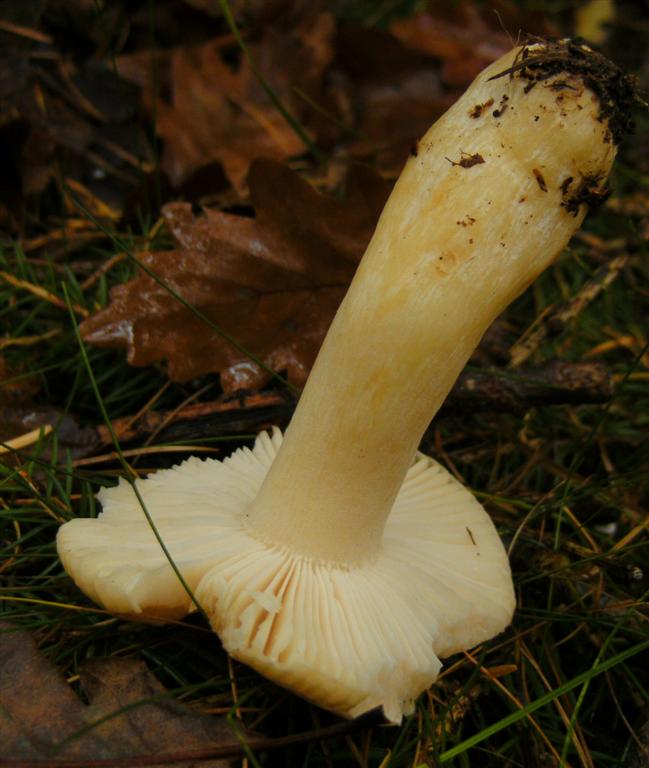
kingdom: Fungi
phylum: Basidiomycota
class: Agaricomycetes
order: Russulales
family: Russulaceae
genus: Russula
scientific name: Russula
